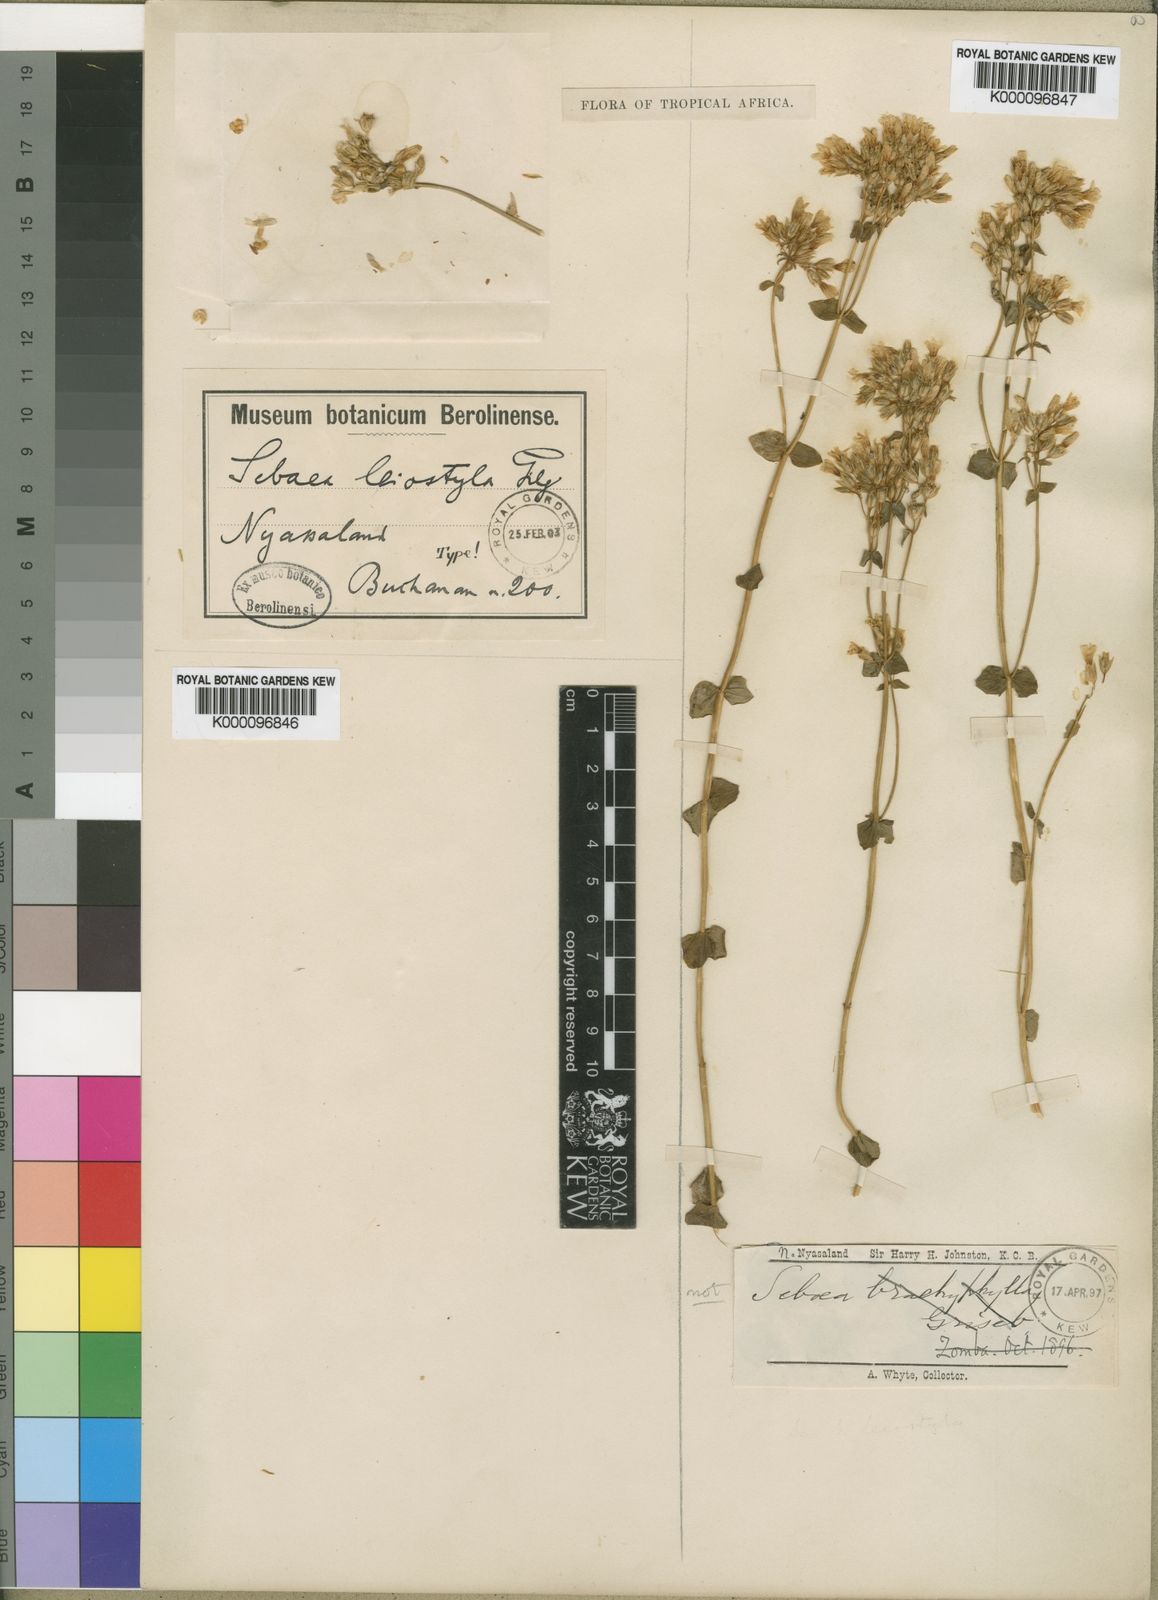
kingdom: Plantae
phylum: Tracheophyta
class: Magnoliopsida
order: Gentianales
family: Gentianaceae
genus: Sebaea
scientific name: Sebaea leiostyla
